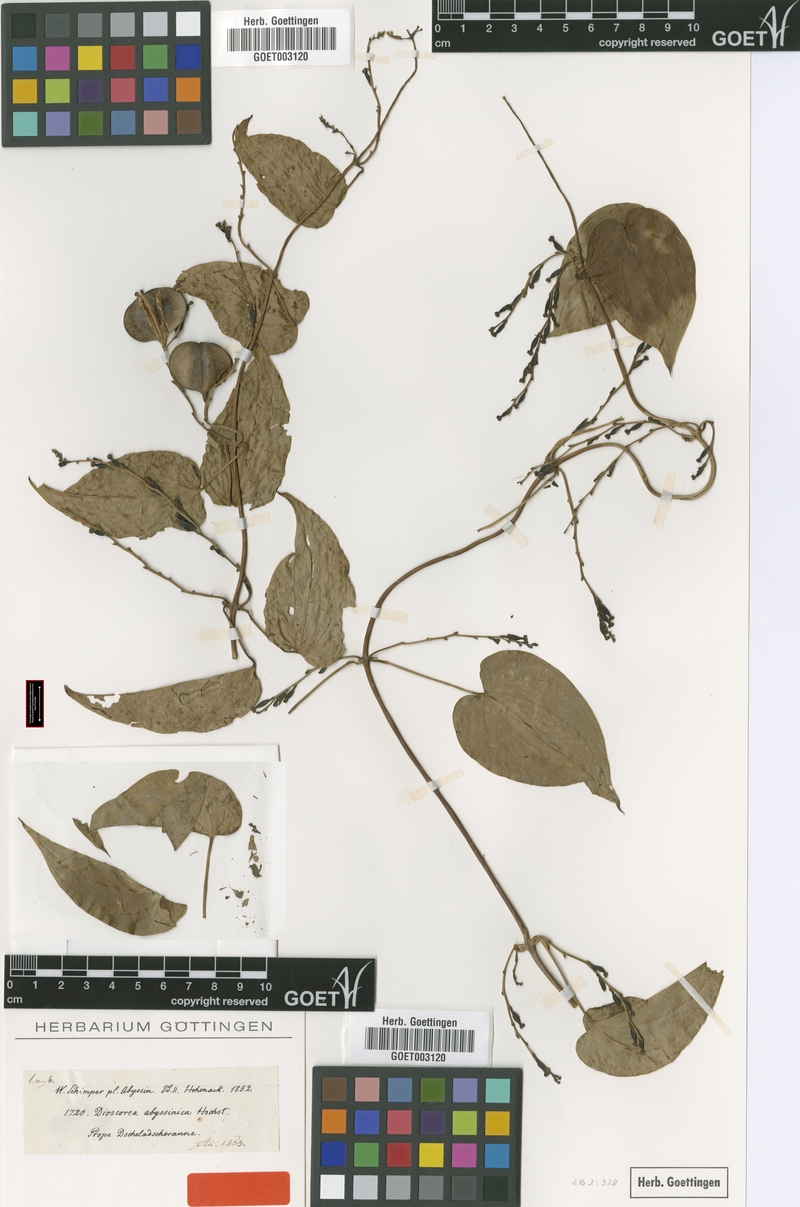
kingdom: Plantae
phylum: Tracheophyta
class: Liliopsida
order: Dioscoreales
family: Dioscoreaceae
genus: Dioscorea
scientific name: Dioscorea abyssinica
